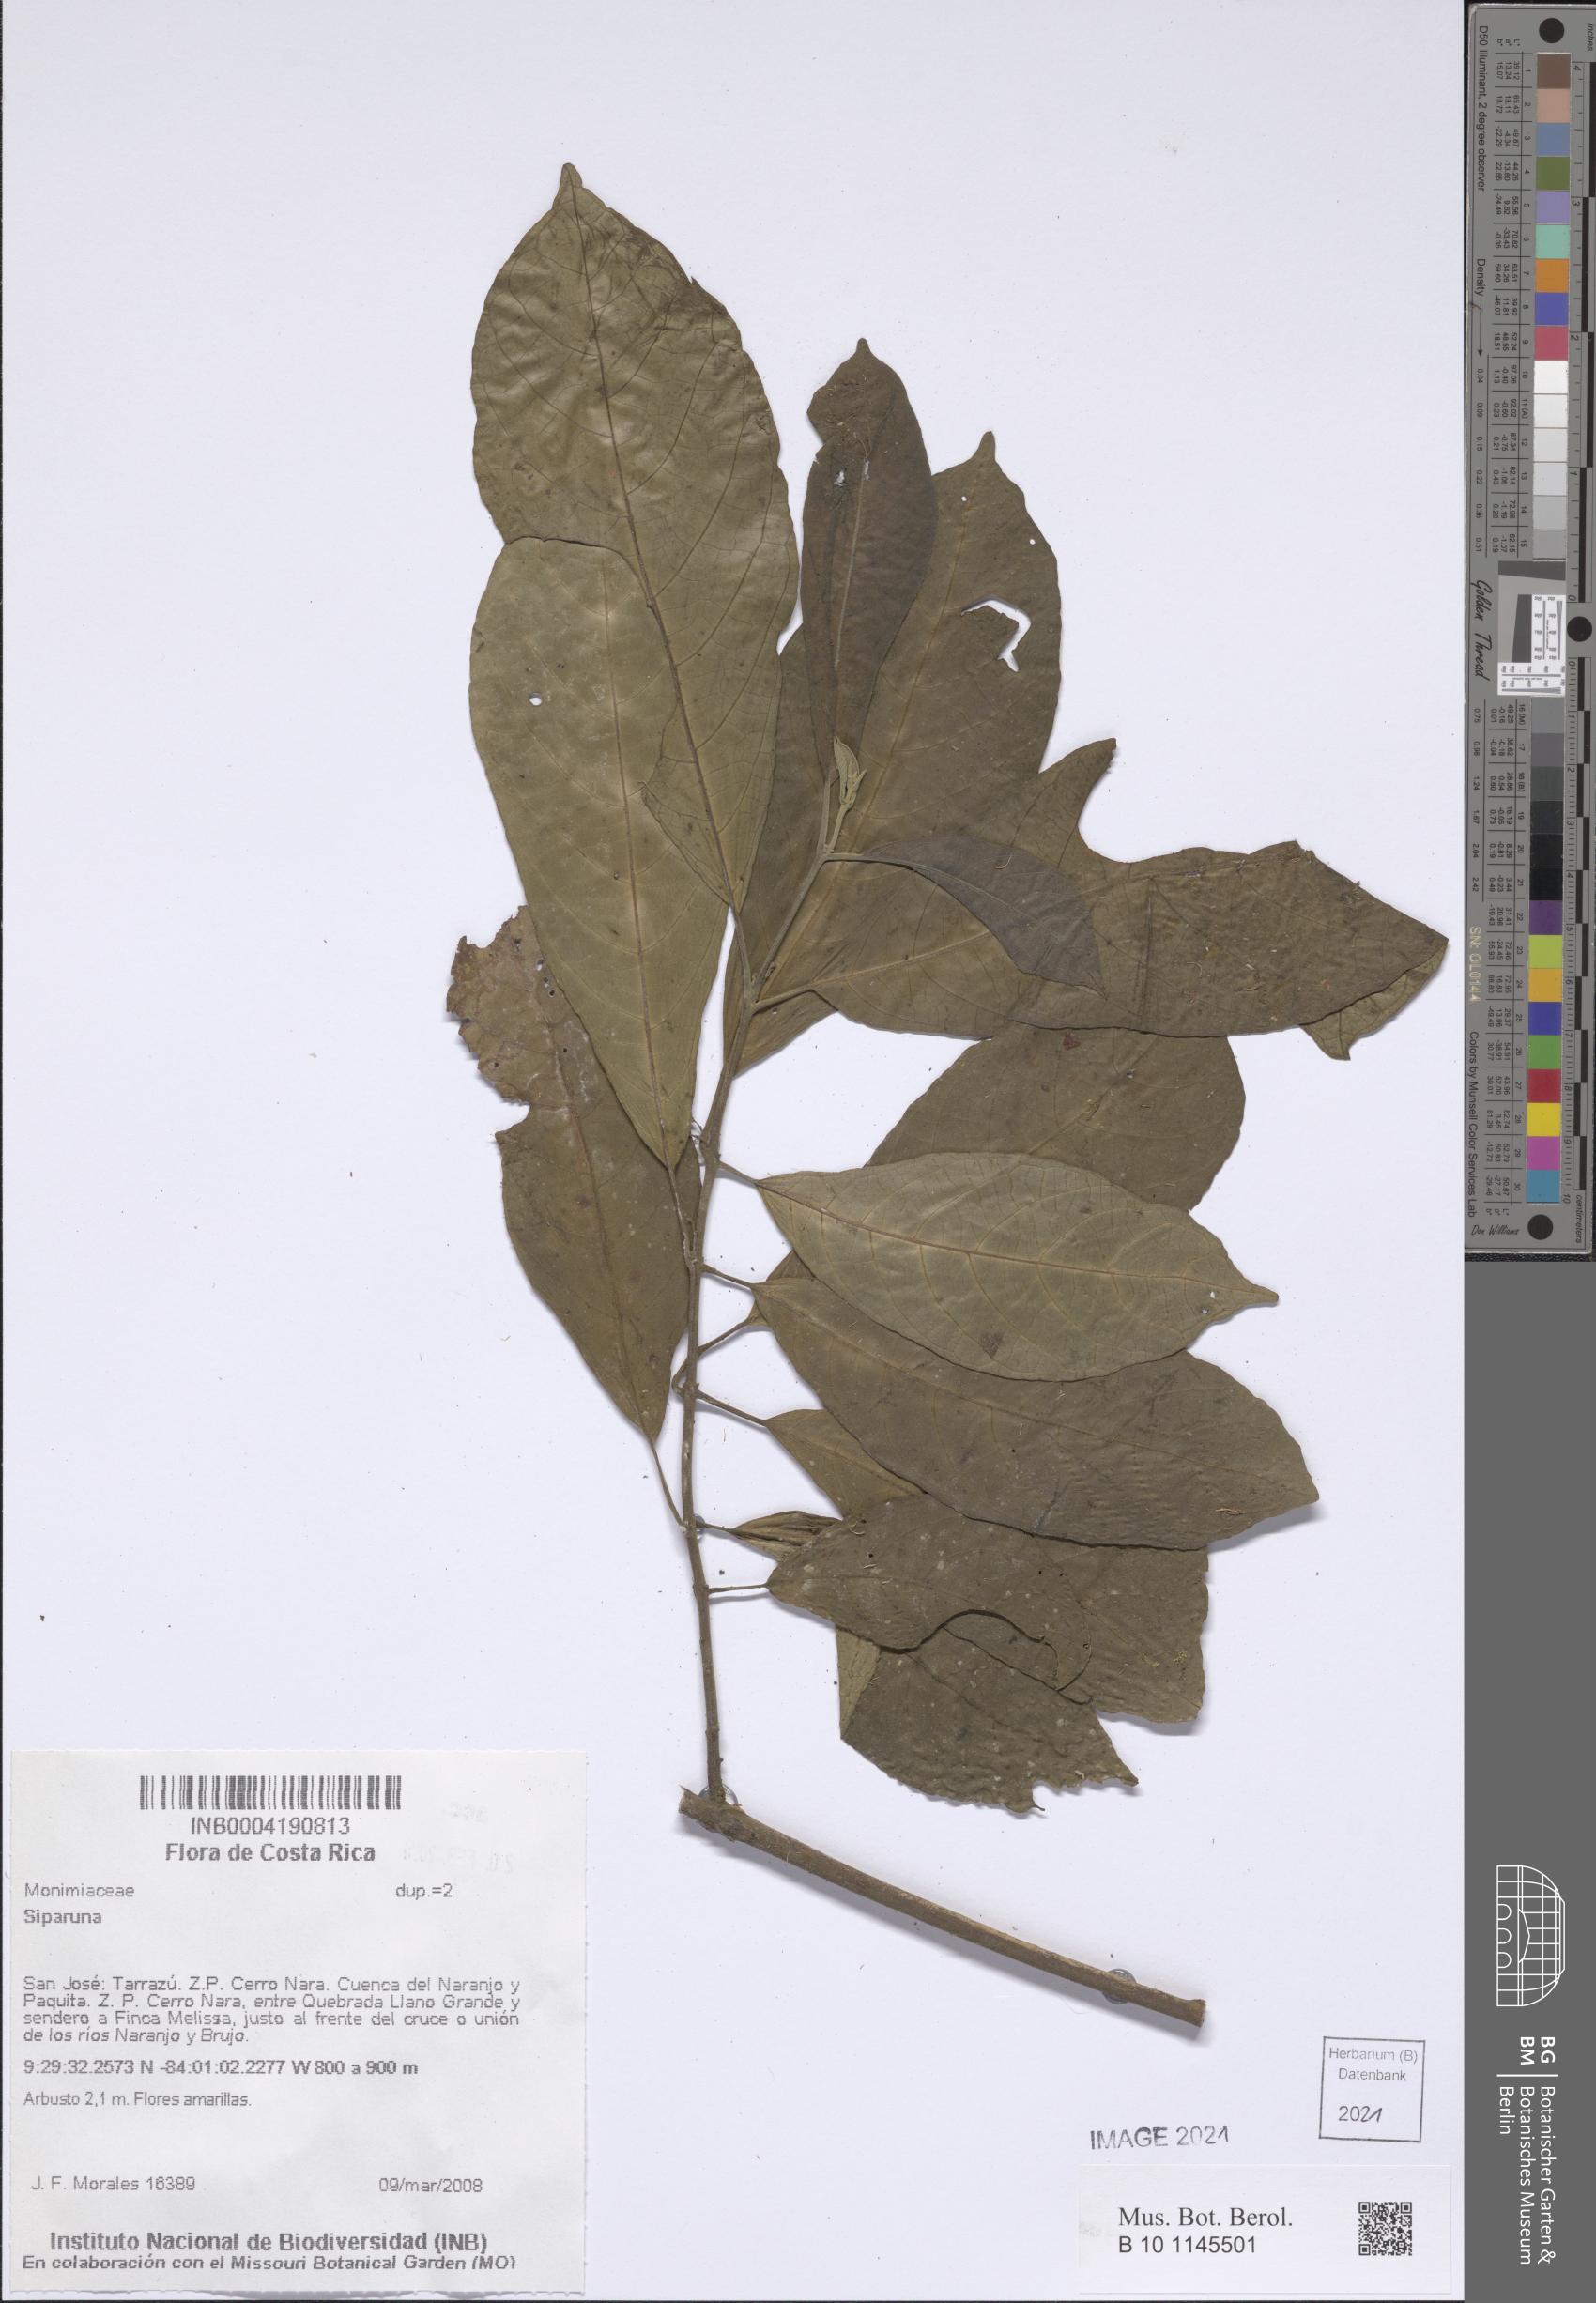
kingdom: Plantae
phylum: Tracheophyta
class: Magnoliopsida
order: Laurales
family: Siparunaceae
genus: Siparuna
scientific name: Siparuna
